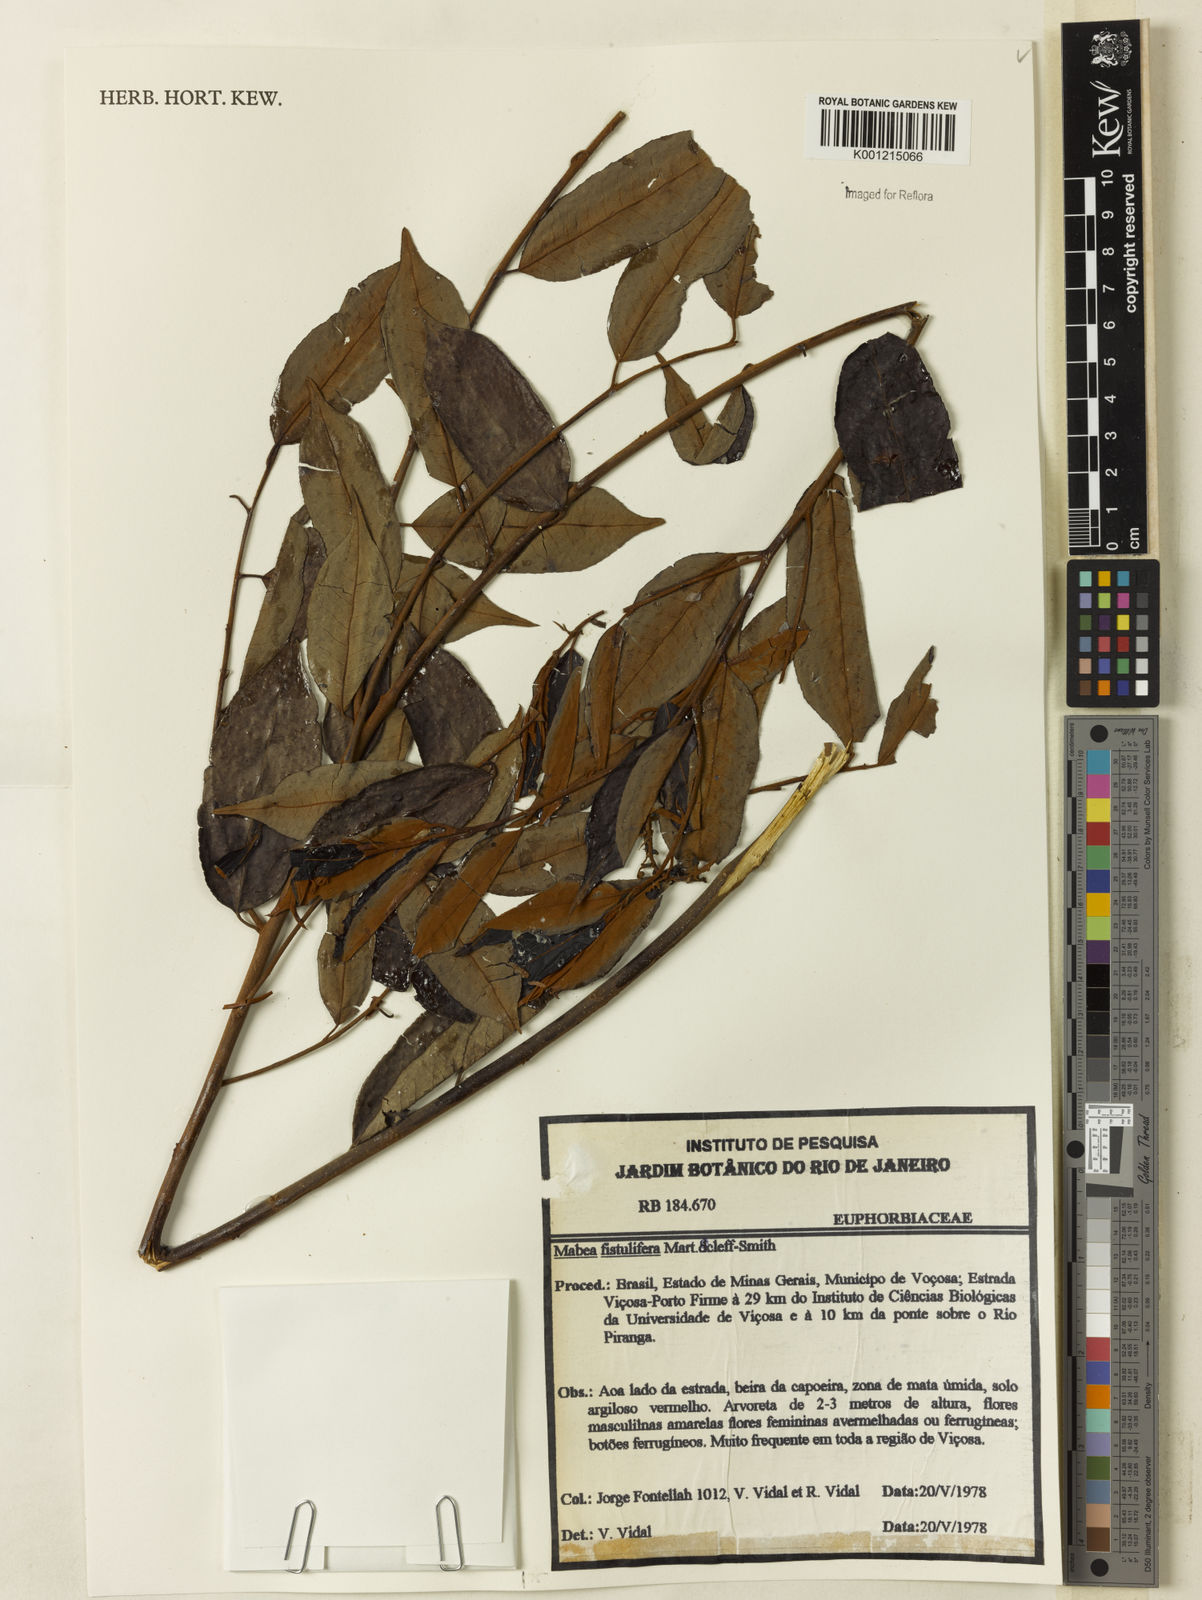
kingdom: Plantae
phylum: Tracheophyta
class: Magnoliopsida
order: Malpighiales
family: Euphorbiaceae
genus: Mabea
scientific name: Mabea fistulifera
